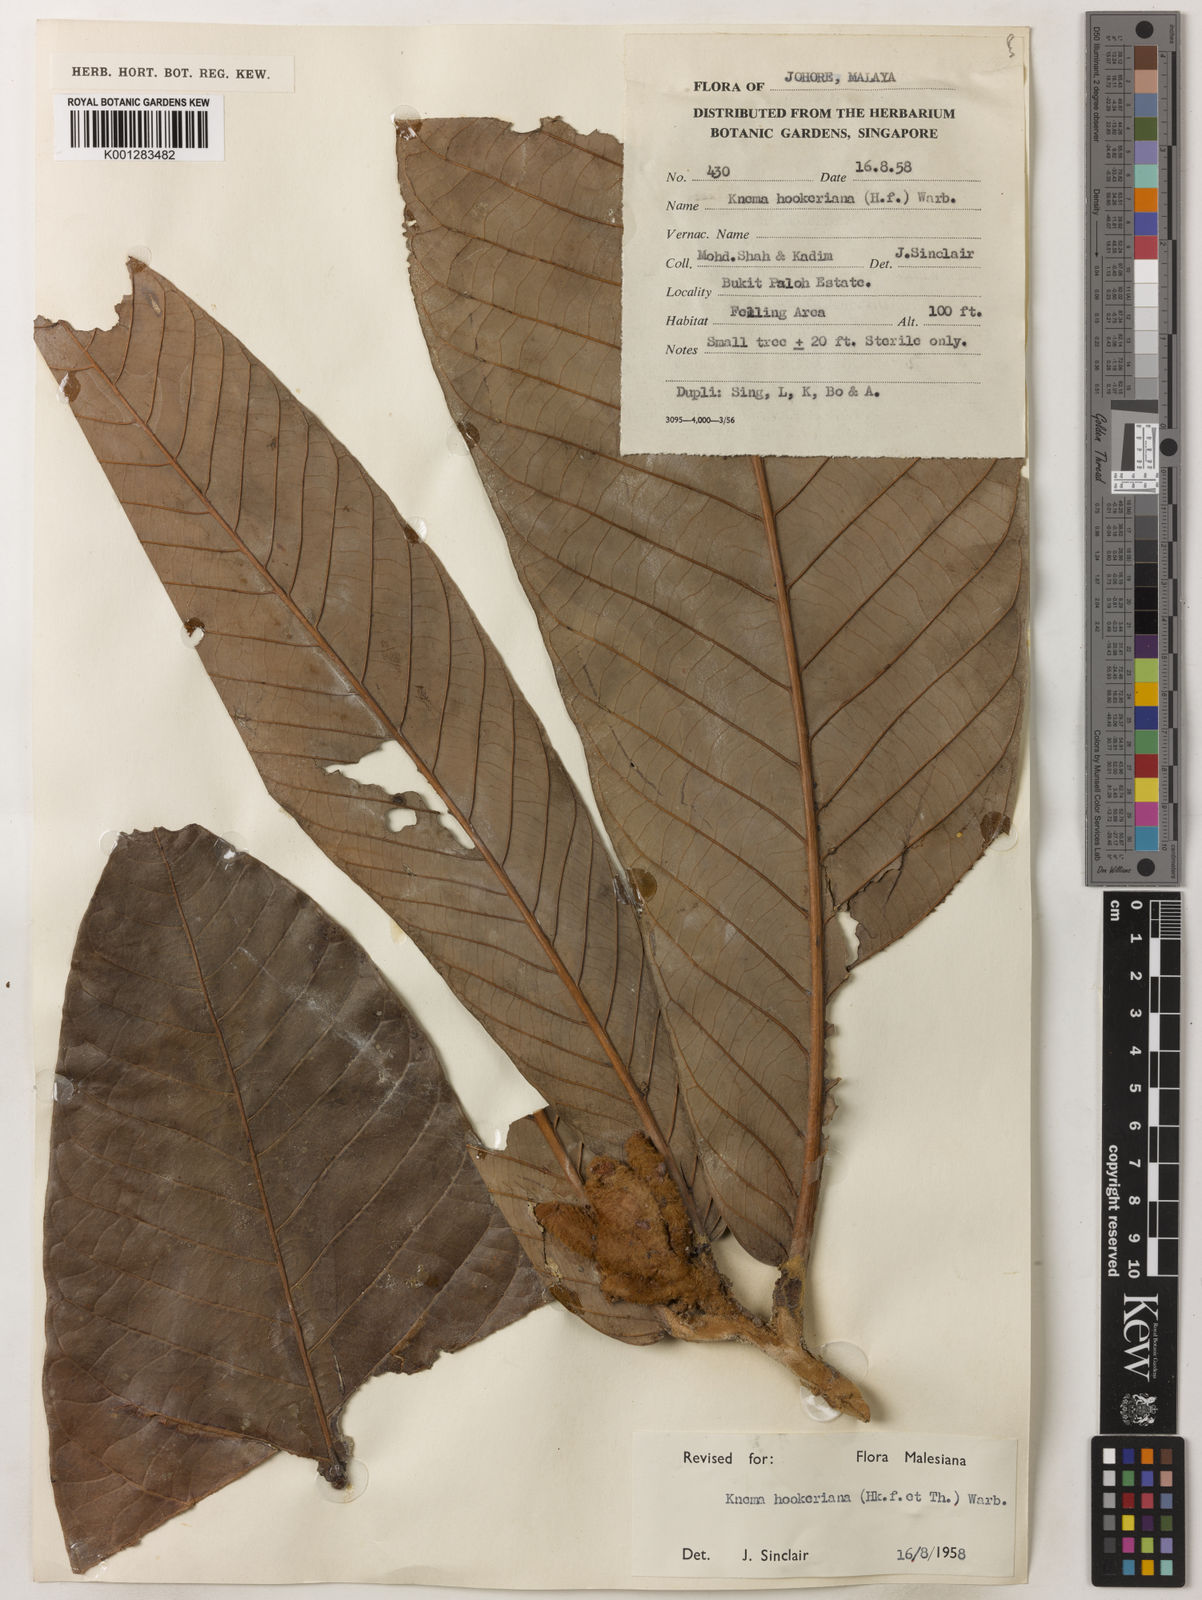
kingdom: Plantae
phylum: Tracheophyta
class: Magnoliopsida
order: Magnoliales
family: Myristicaceae
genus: Knema
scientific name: Knema hookeriana
